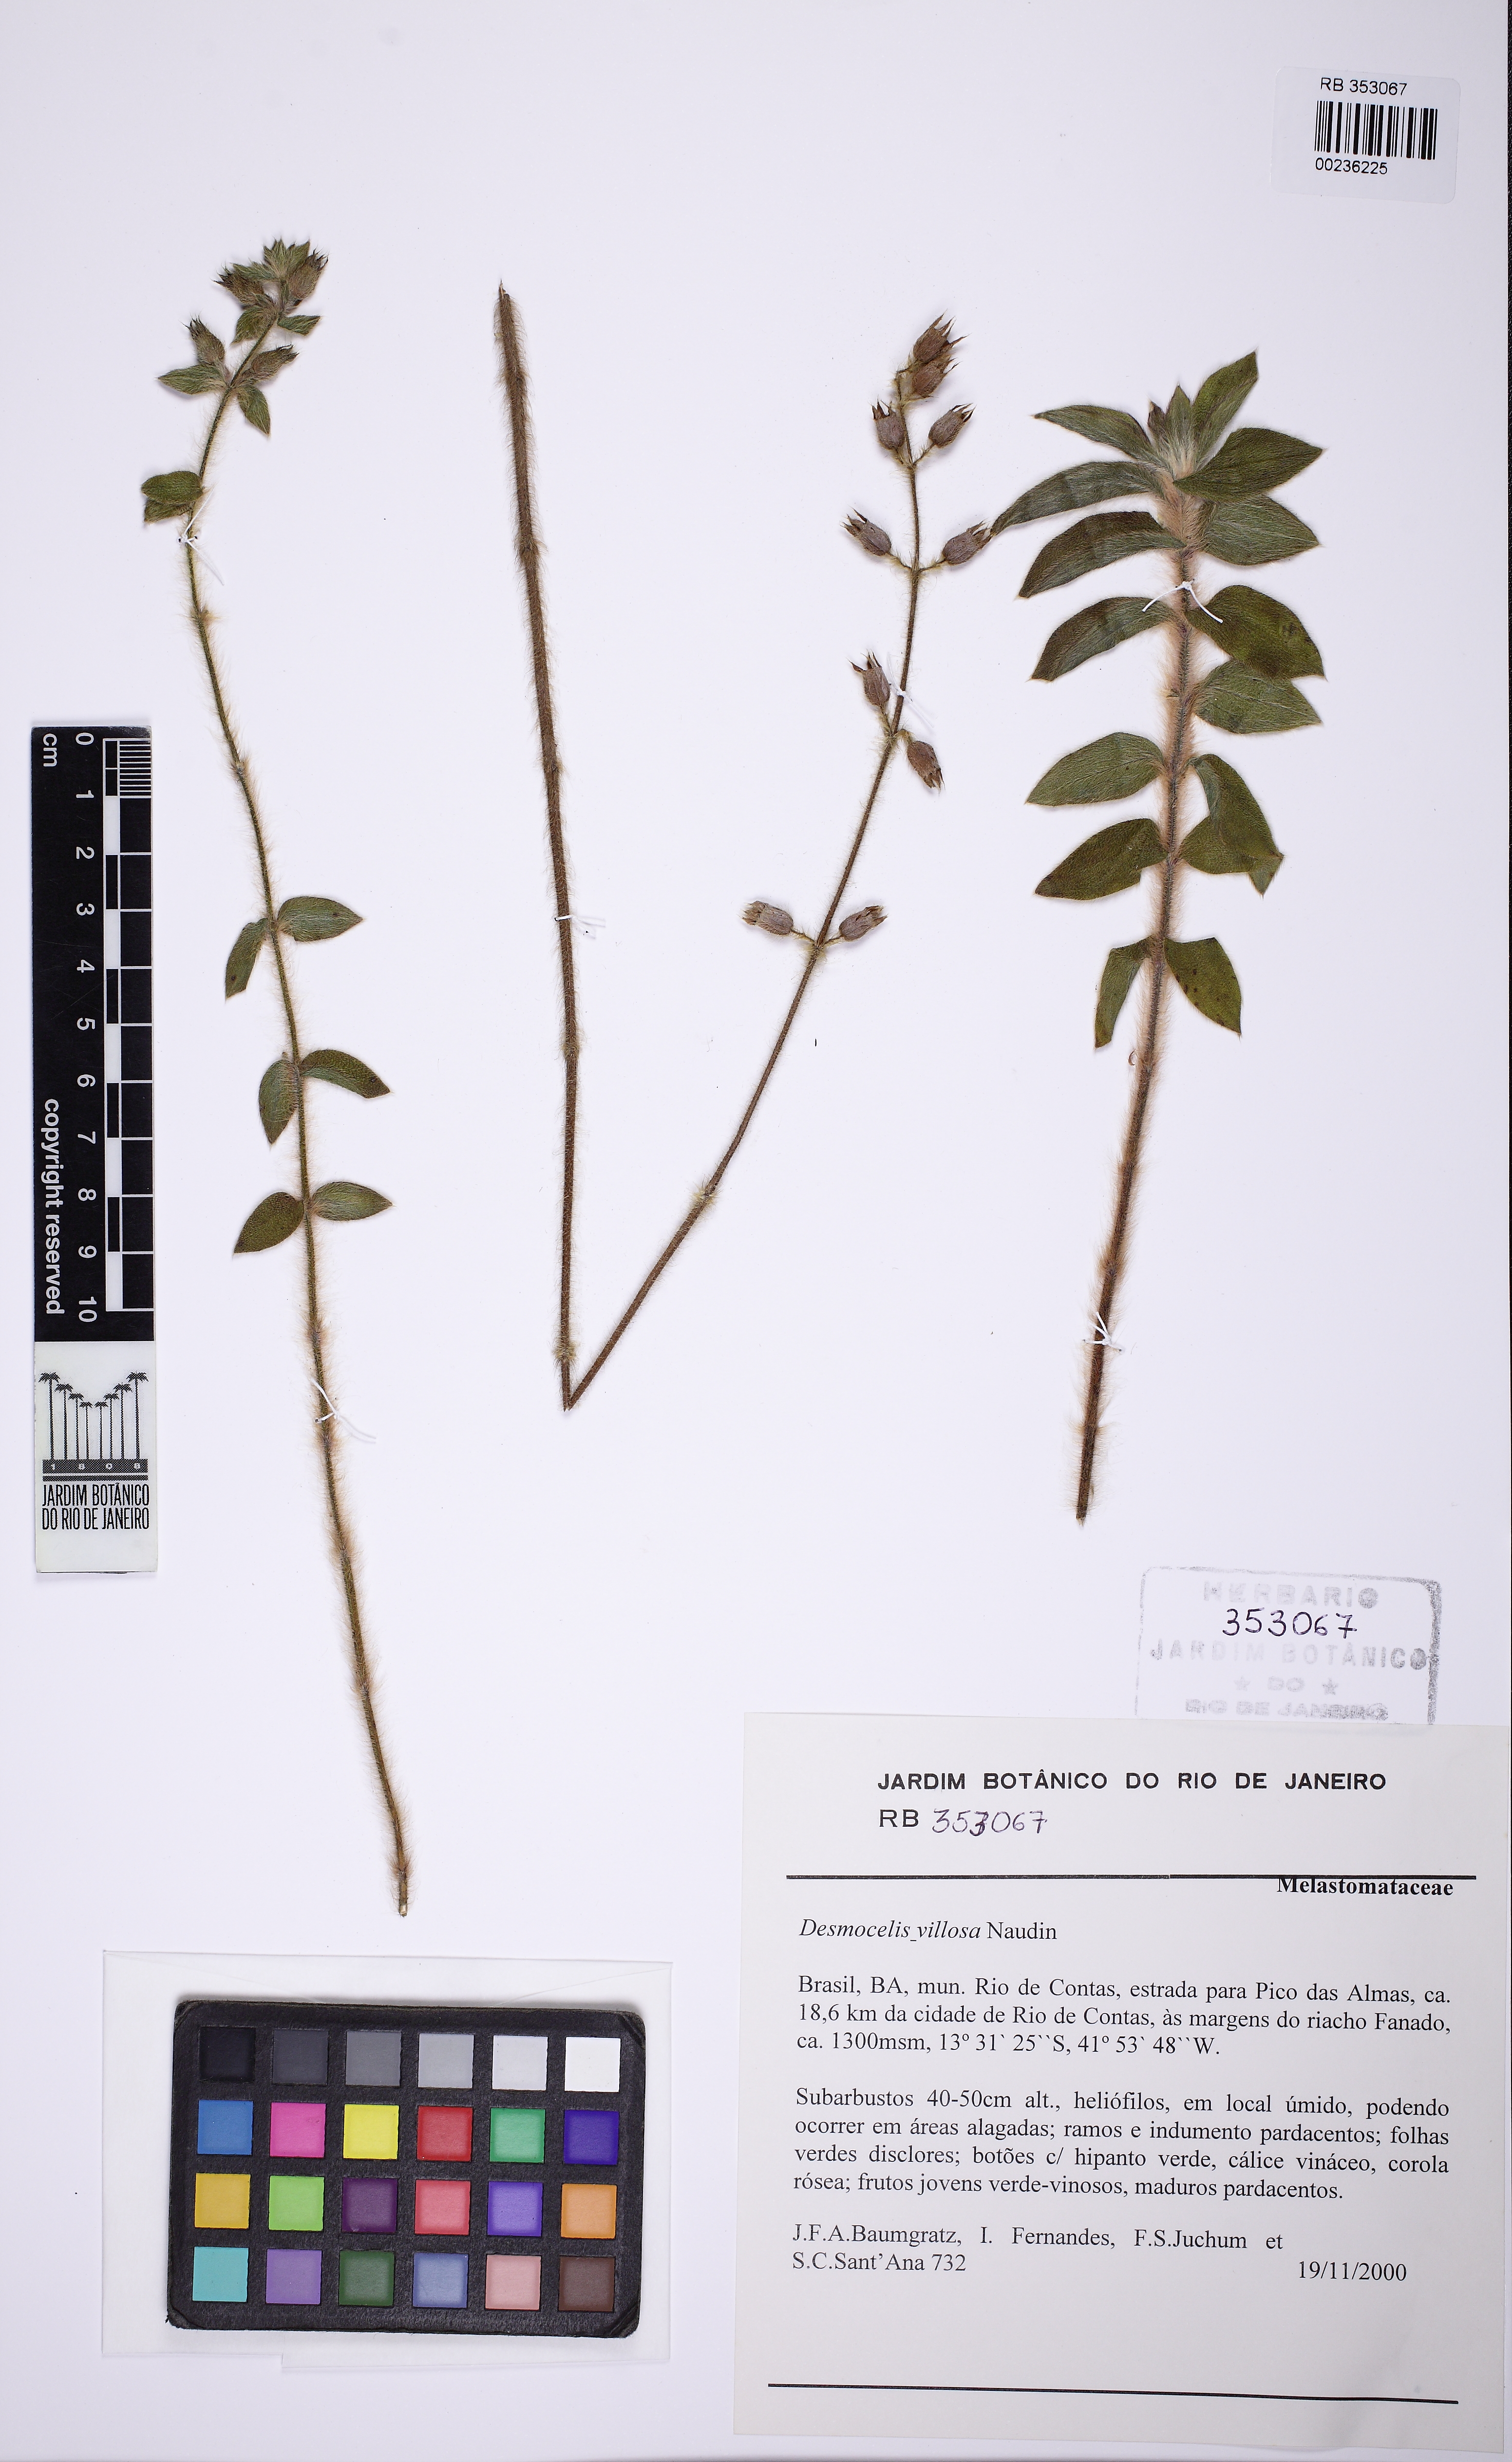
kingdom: Plantae
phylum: Tracheophyta
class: Magnoliopsida
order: Myrtales
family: Melastomataceae
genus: Desmoscelis
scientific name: Desmoscelis villosa
